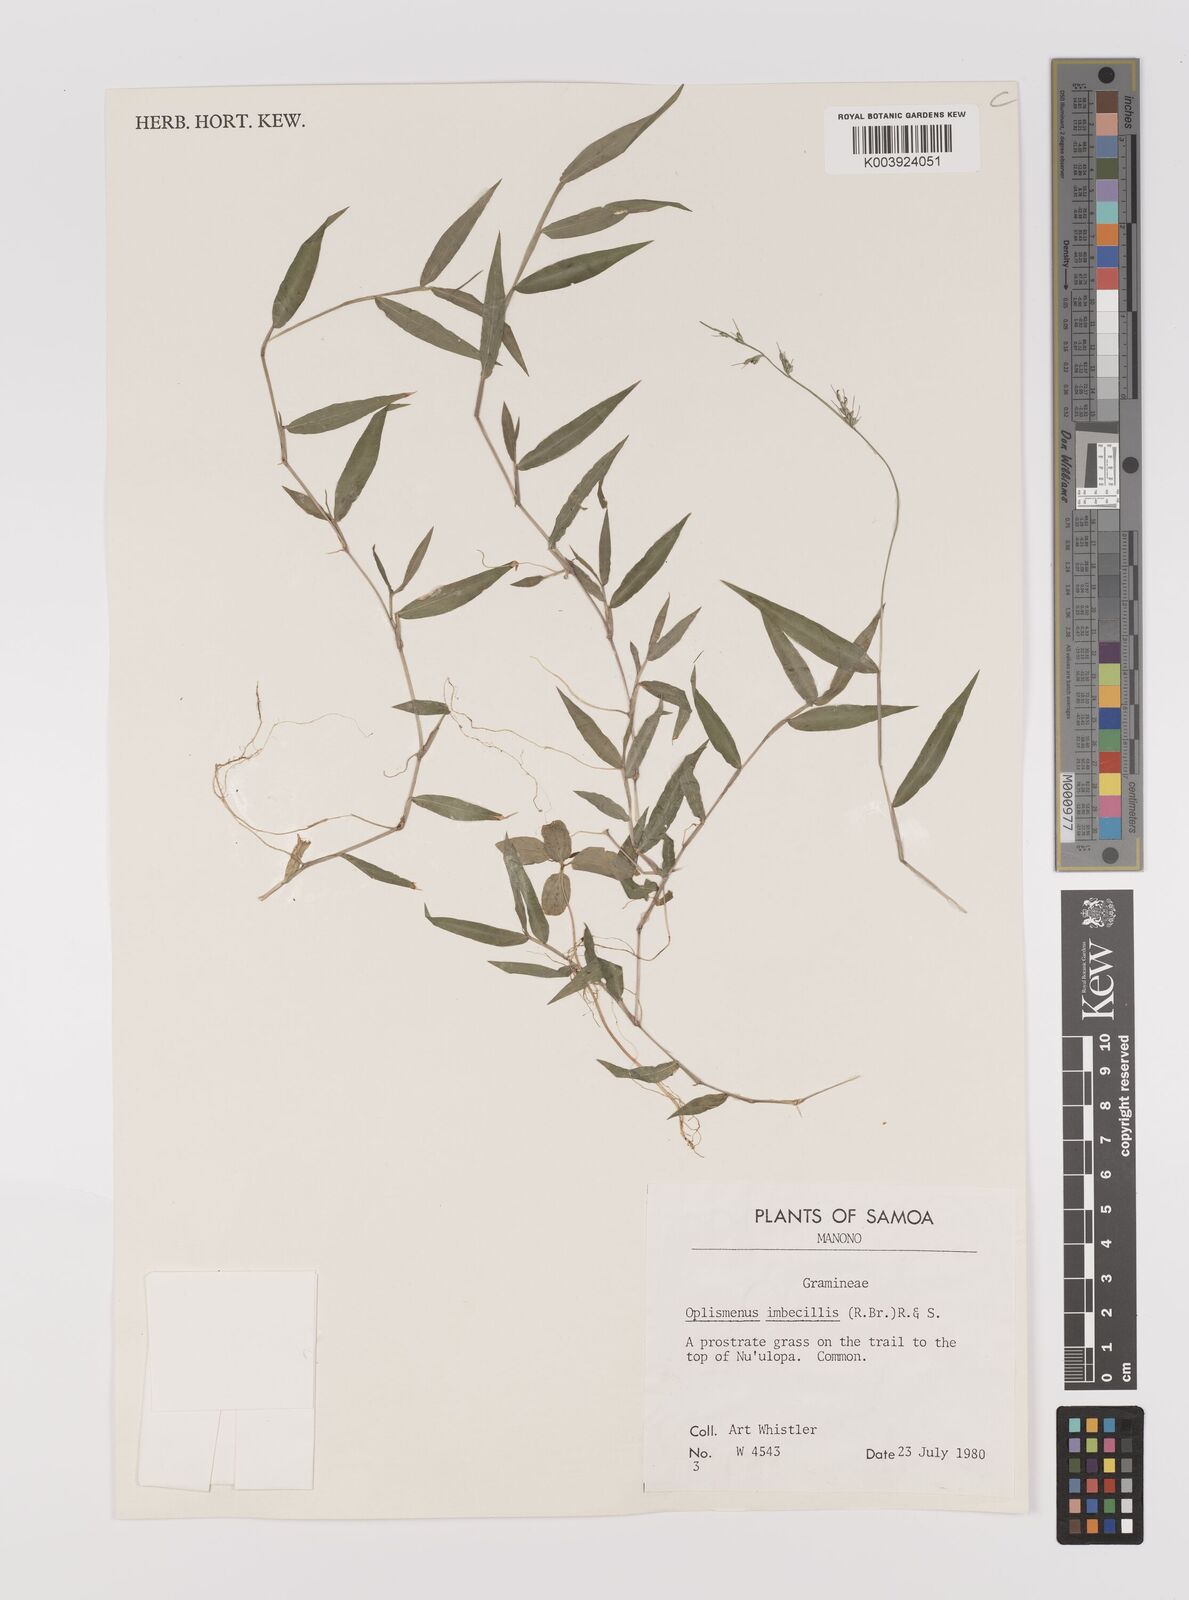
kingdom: Plantae
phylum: Tracheophyta
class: Liliopsida
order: Poales
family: Poaceae
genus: Oplismenus
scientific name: Oplismenus hirtellus
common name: Basketgrass
